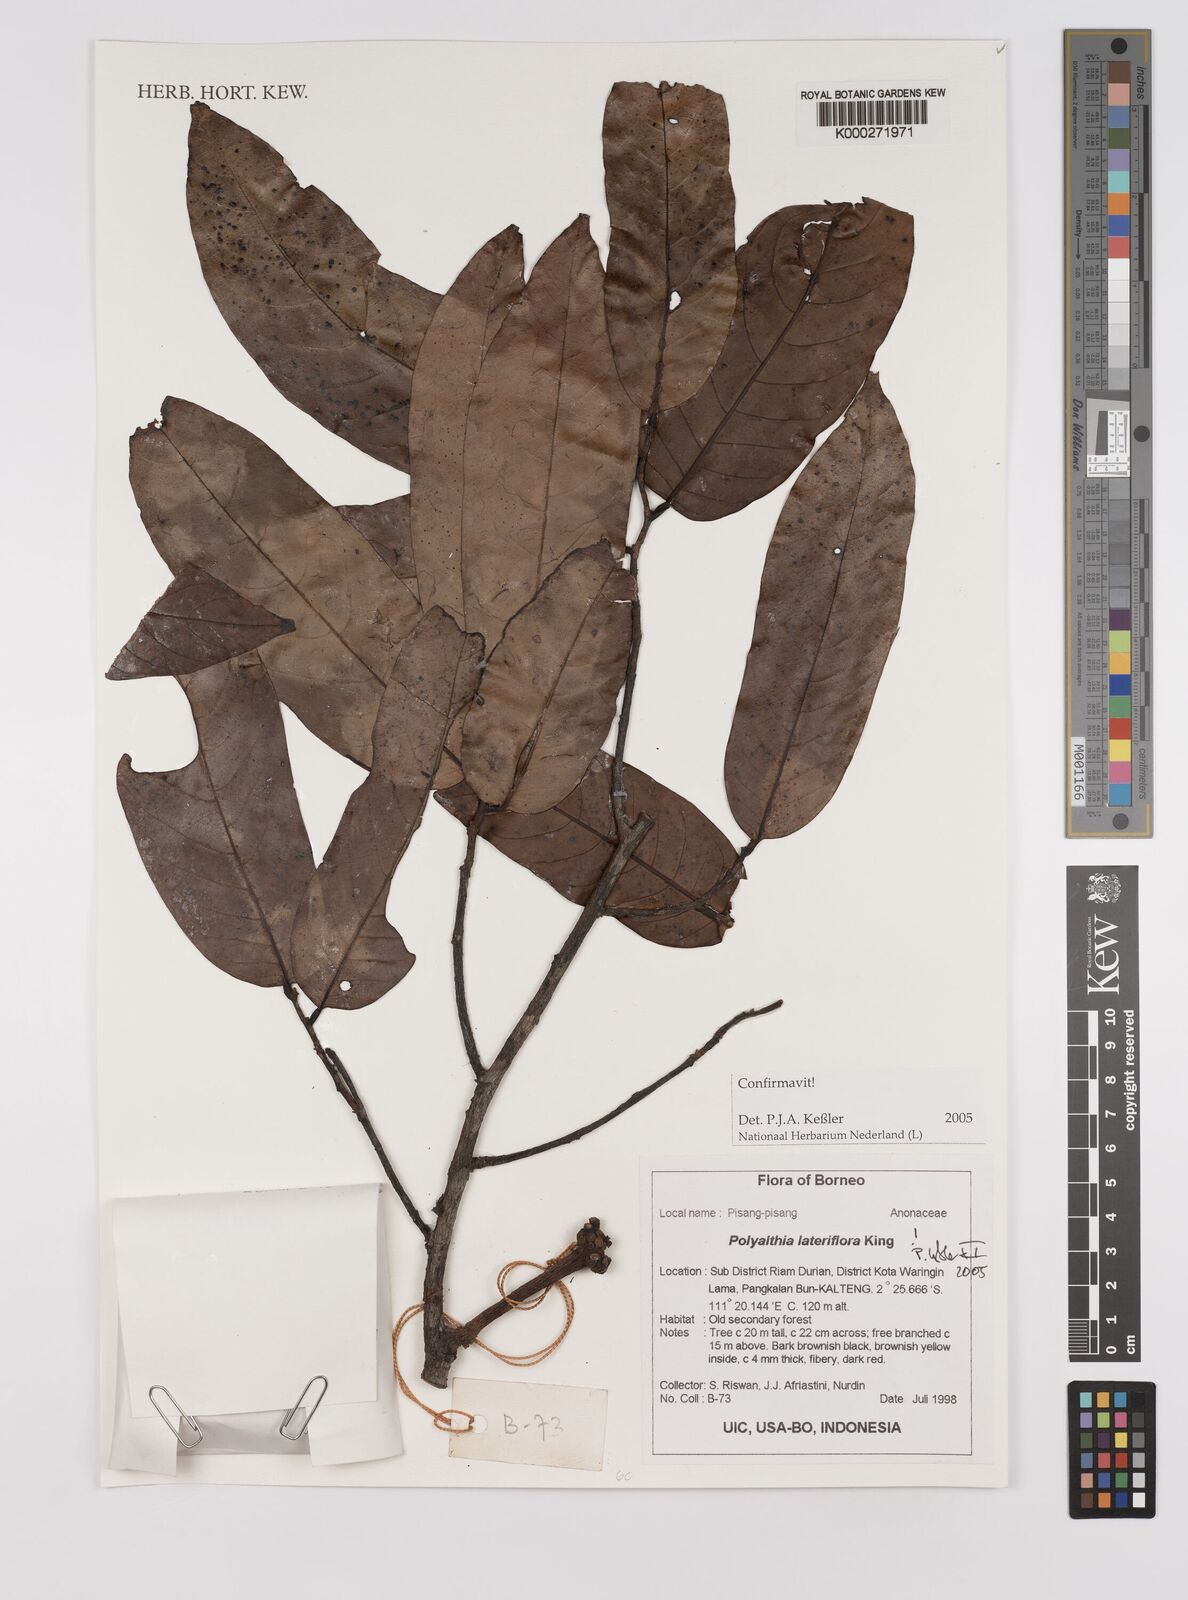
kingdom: Plantae
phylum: Tracheophyta
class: Magnoliopsida
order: Magnoliales
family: Annonaceae
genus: Polyalthia
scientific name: Polyalthia
